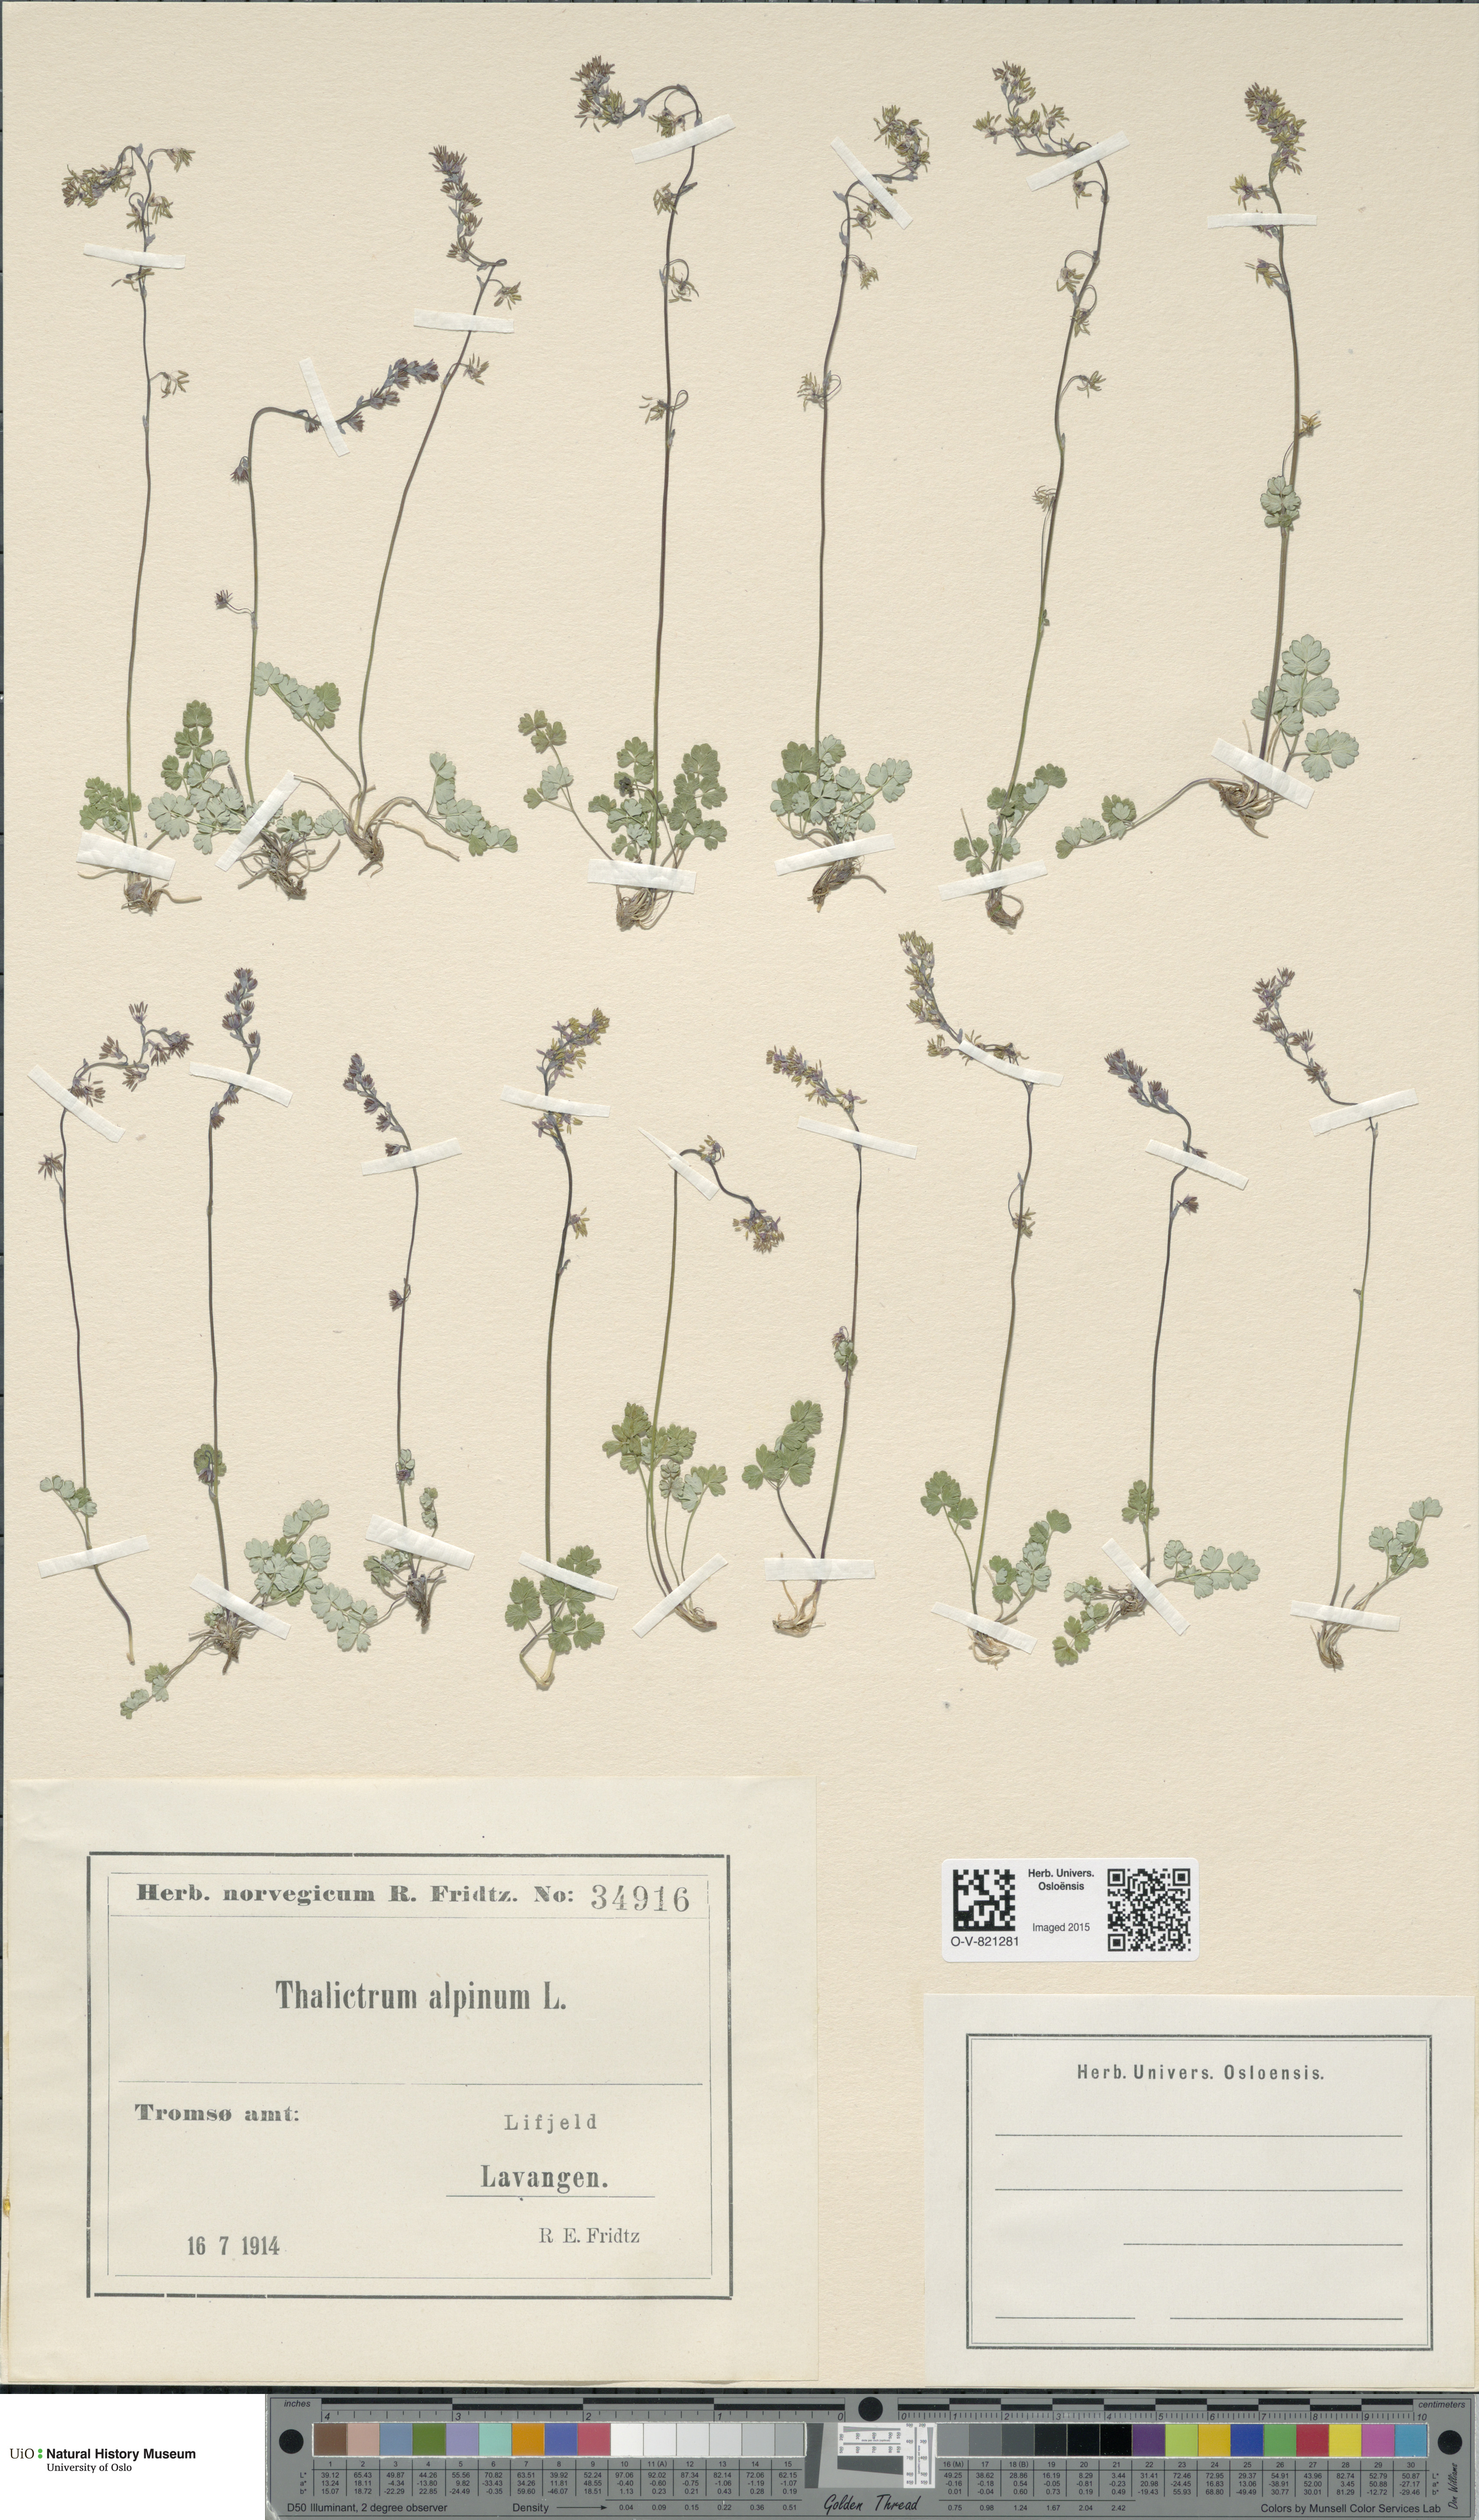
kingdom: Plantae
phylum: Tracheophyta
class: Magnoliopsida
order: Ranunculales
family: Ranunculaceae
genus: Thalictrum
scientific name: Thalictrum alpinum
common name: Alpine meadow-rue
